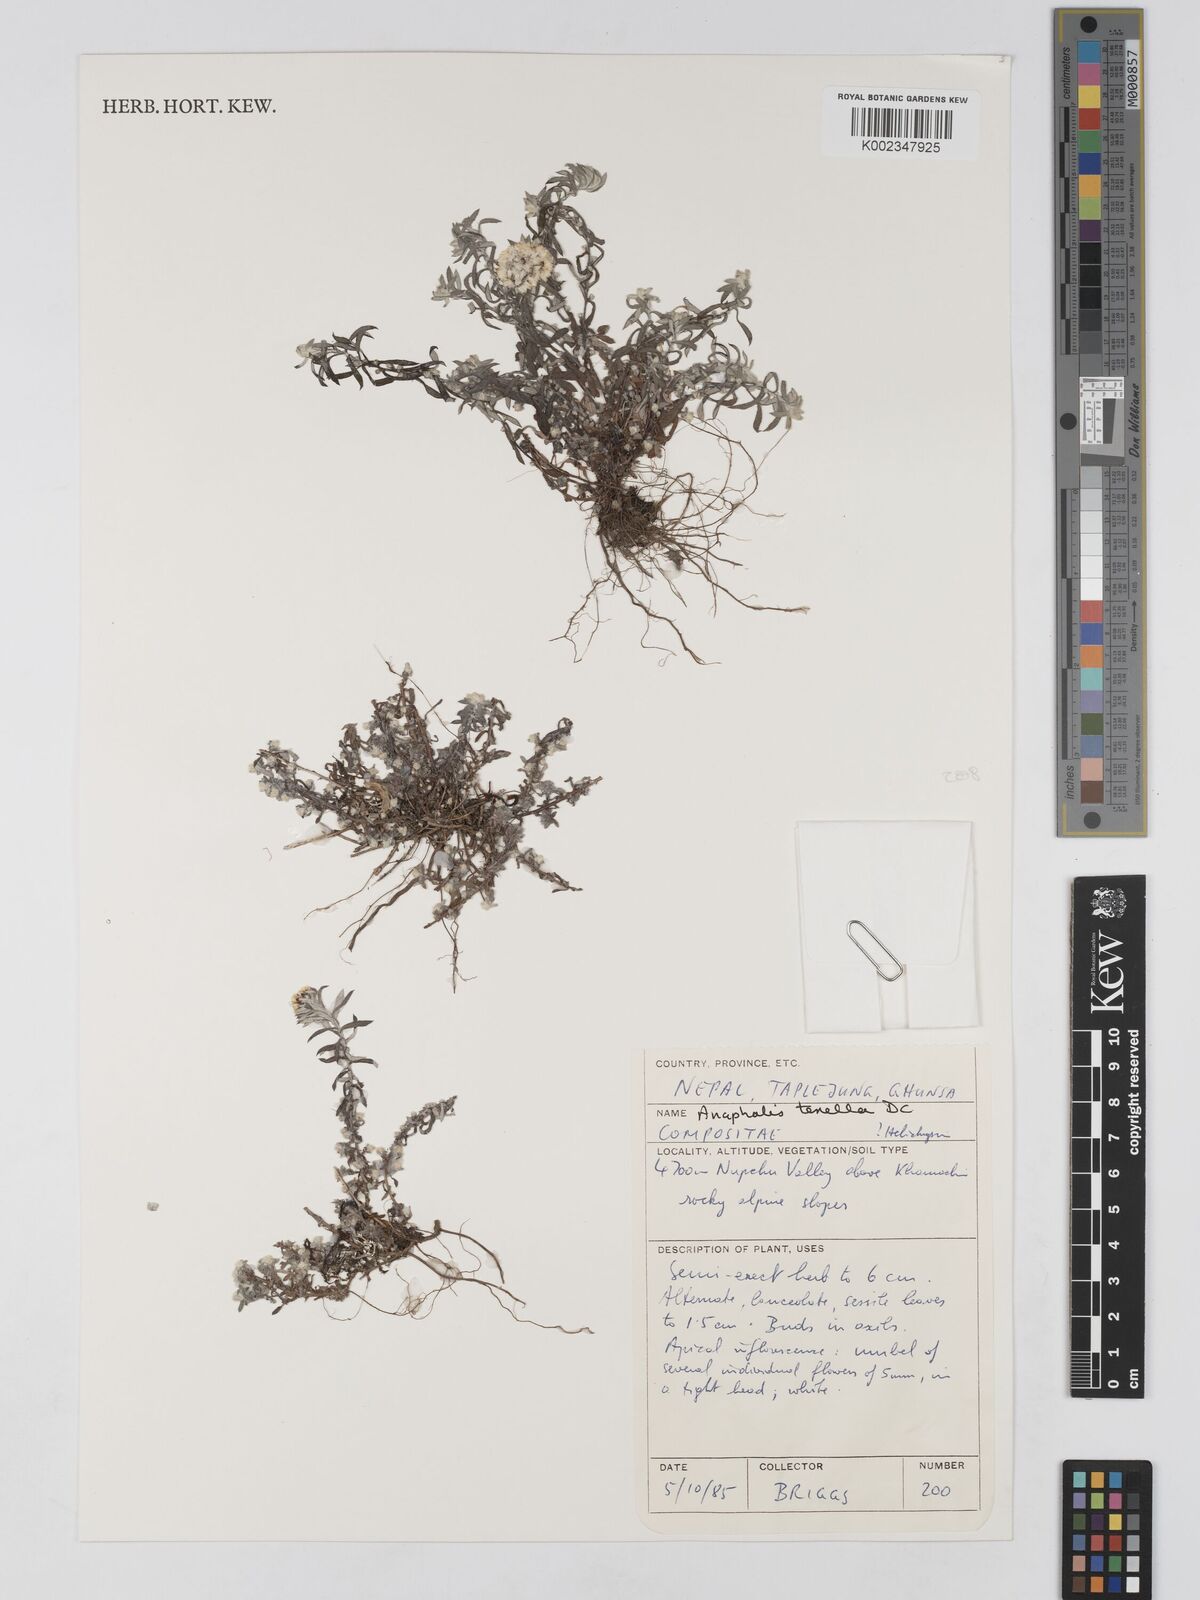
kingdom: Plantae
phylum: Tracheophyta
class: Magnoliopsida
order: Asterales
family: Asteraceae
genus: Anaphalis
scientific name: Anaphalis tenella
